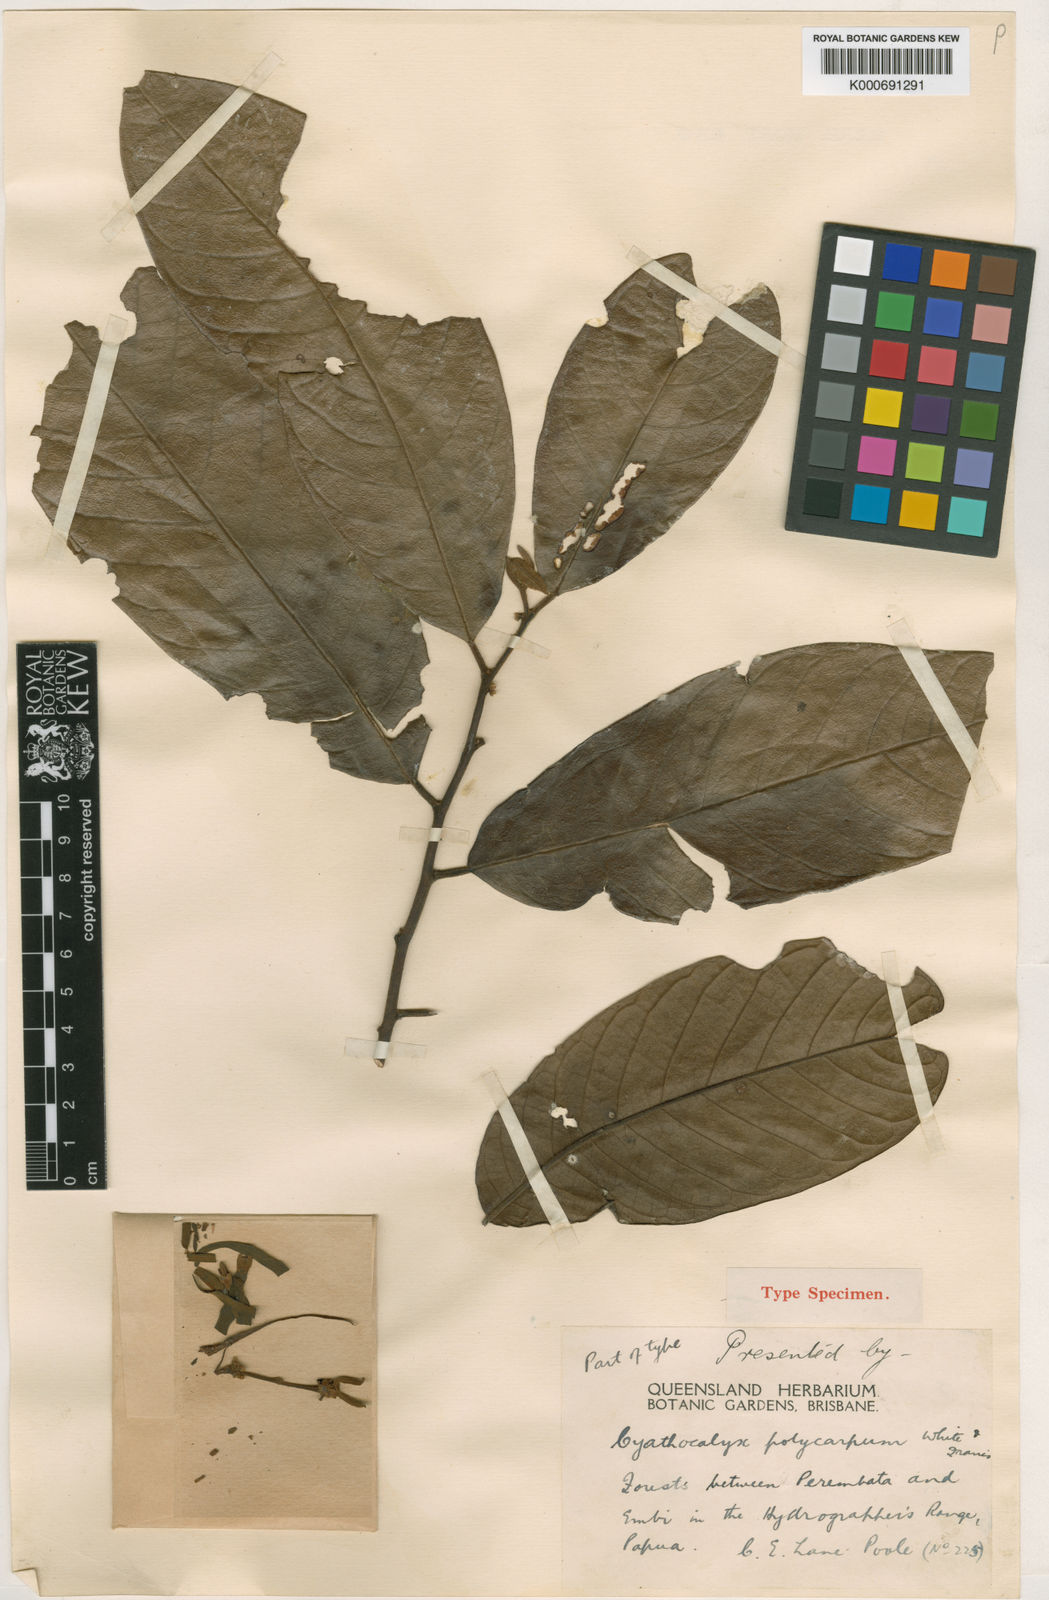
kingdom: Plantae
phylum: Tracheophyta
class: Magnoliopsida
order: Magnoliales
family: Annonaceae
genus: Drepananthus
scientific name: Drepananthus polycarpus
